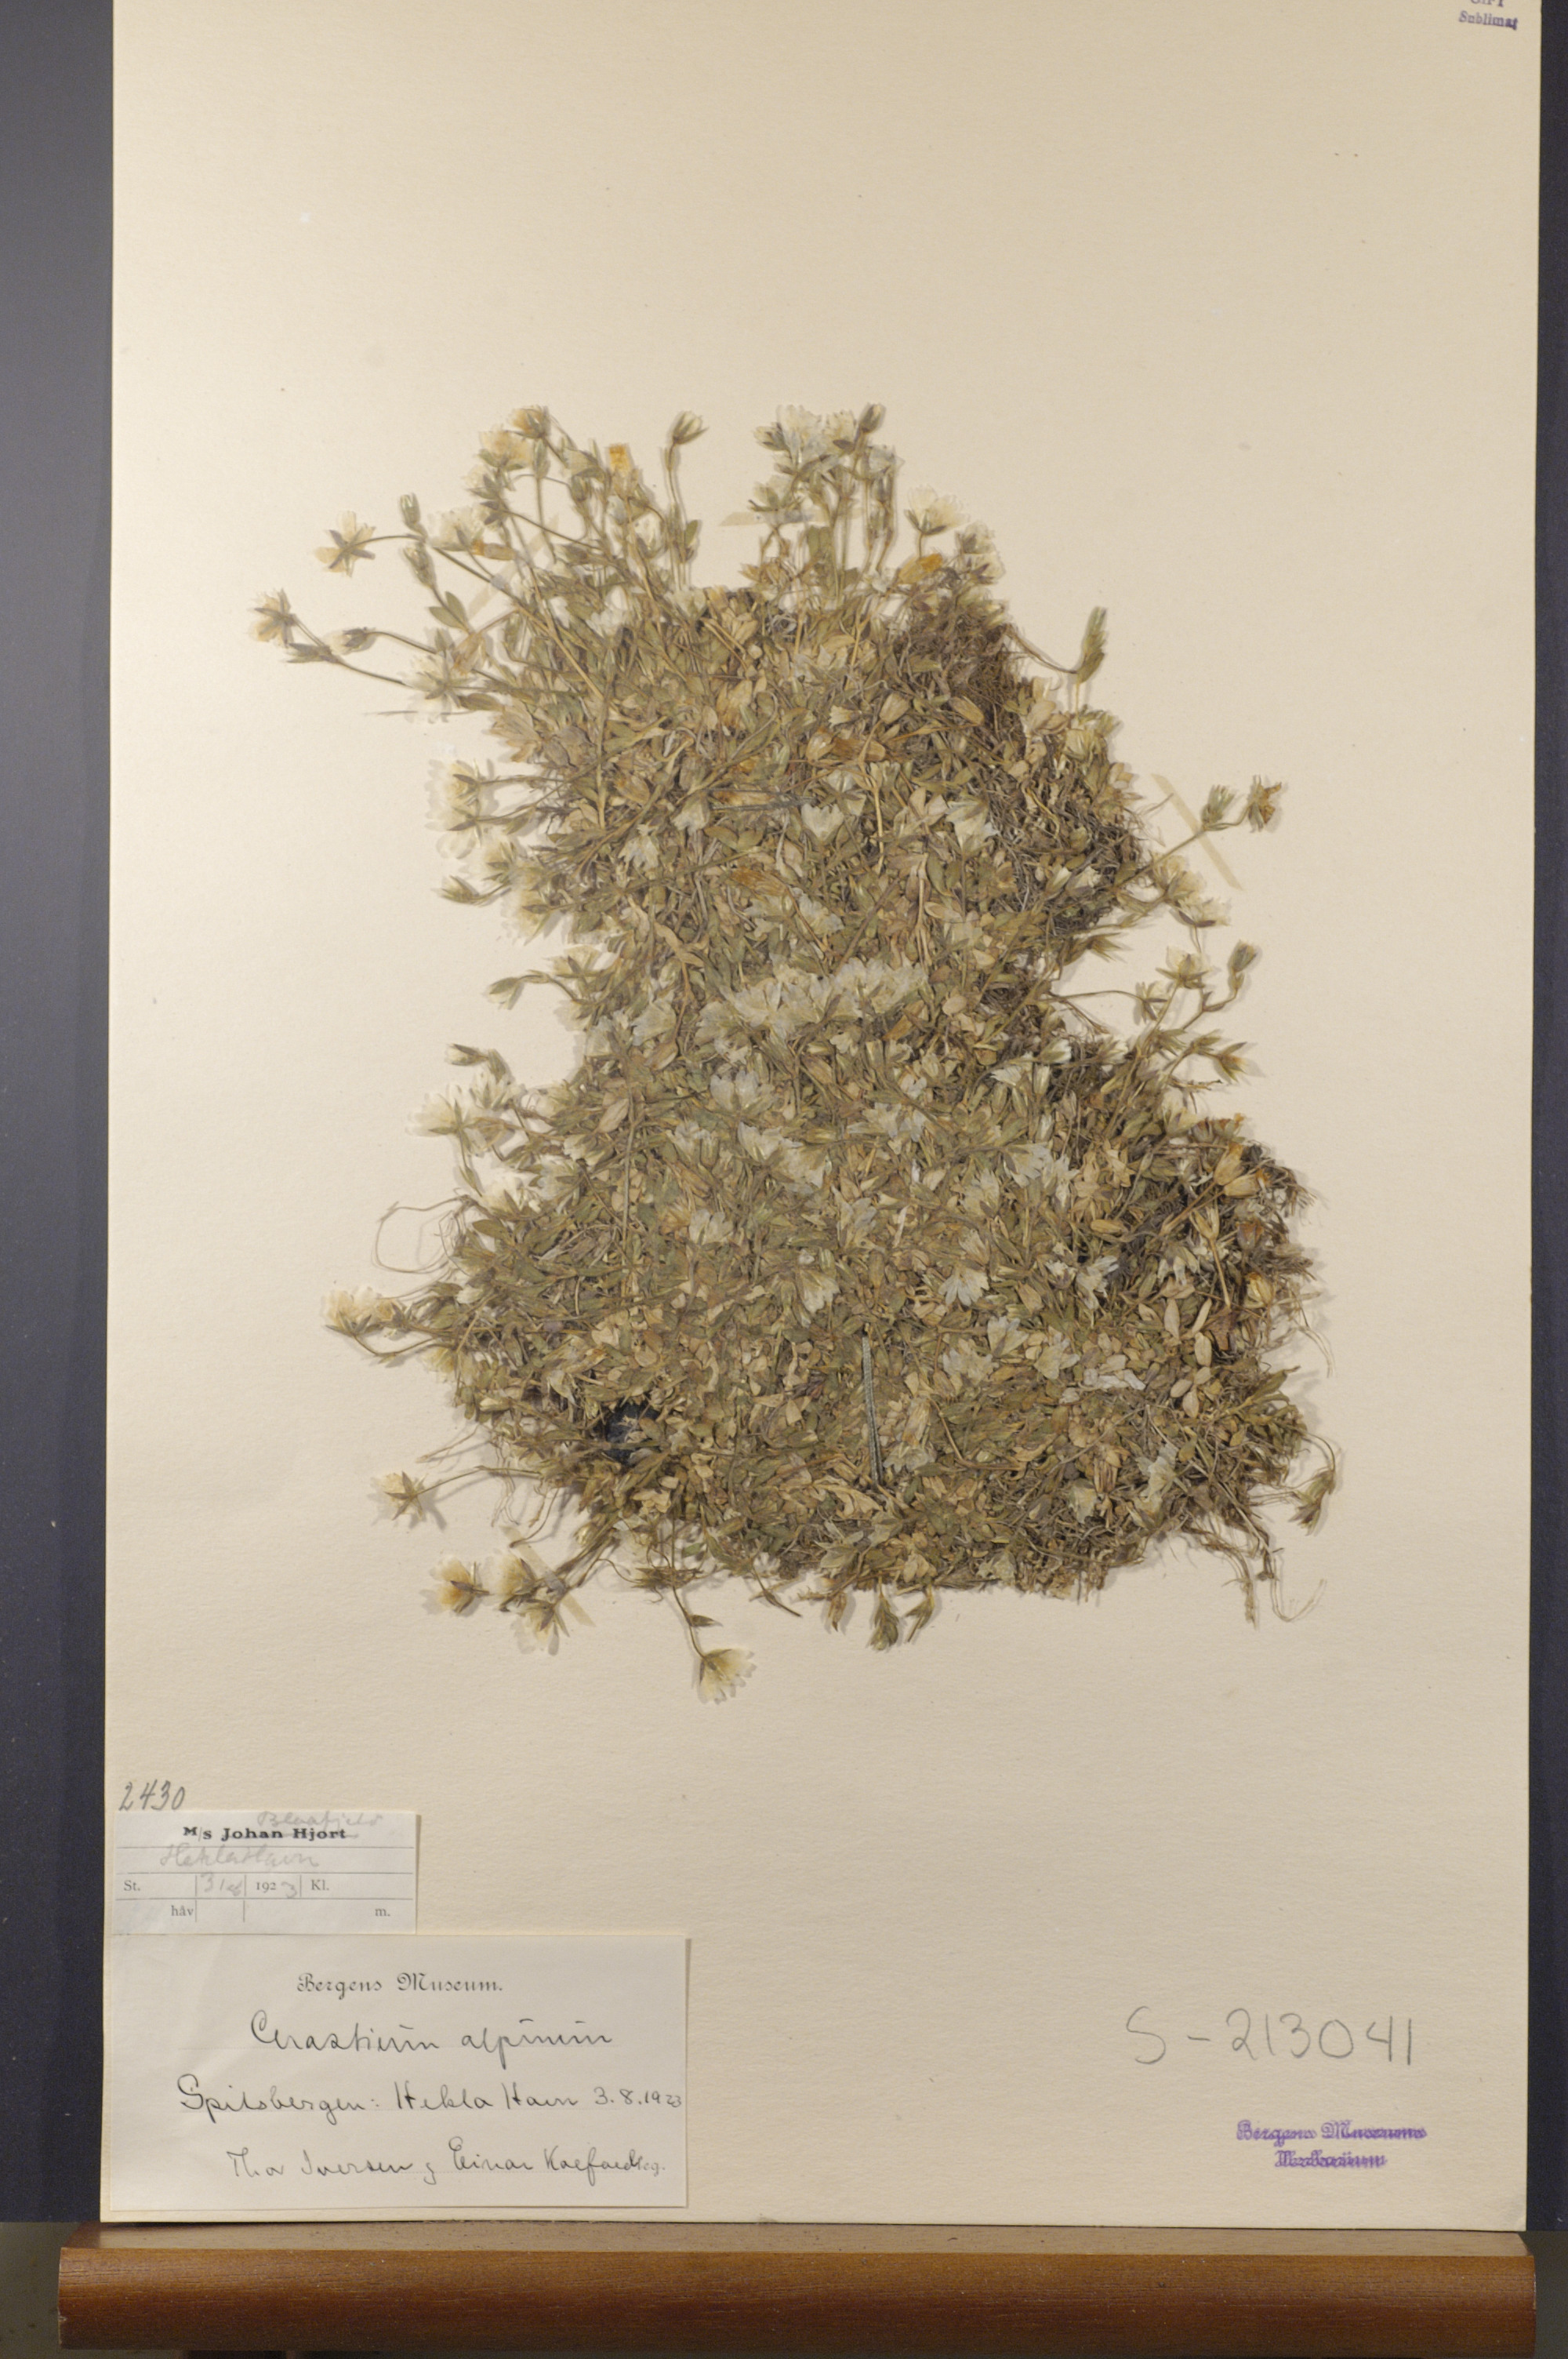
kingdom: Plantae
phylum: Tracheophyta
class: Magnoliopsida
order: Caryophyllales
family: Caryophyllaceae
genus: Cerastium
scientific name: Cerastium alpinum
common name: Alpine mouse-ear
